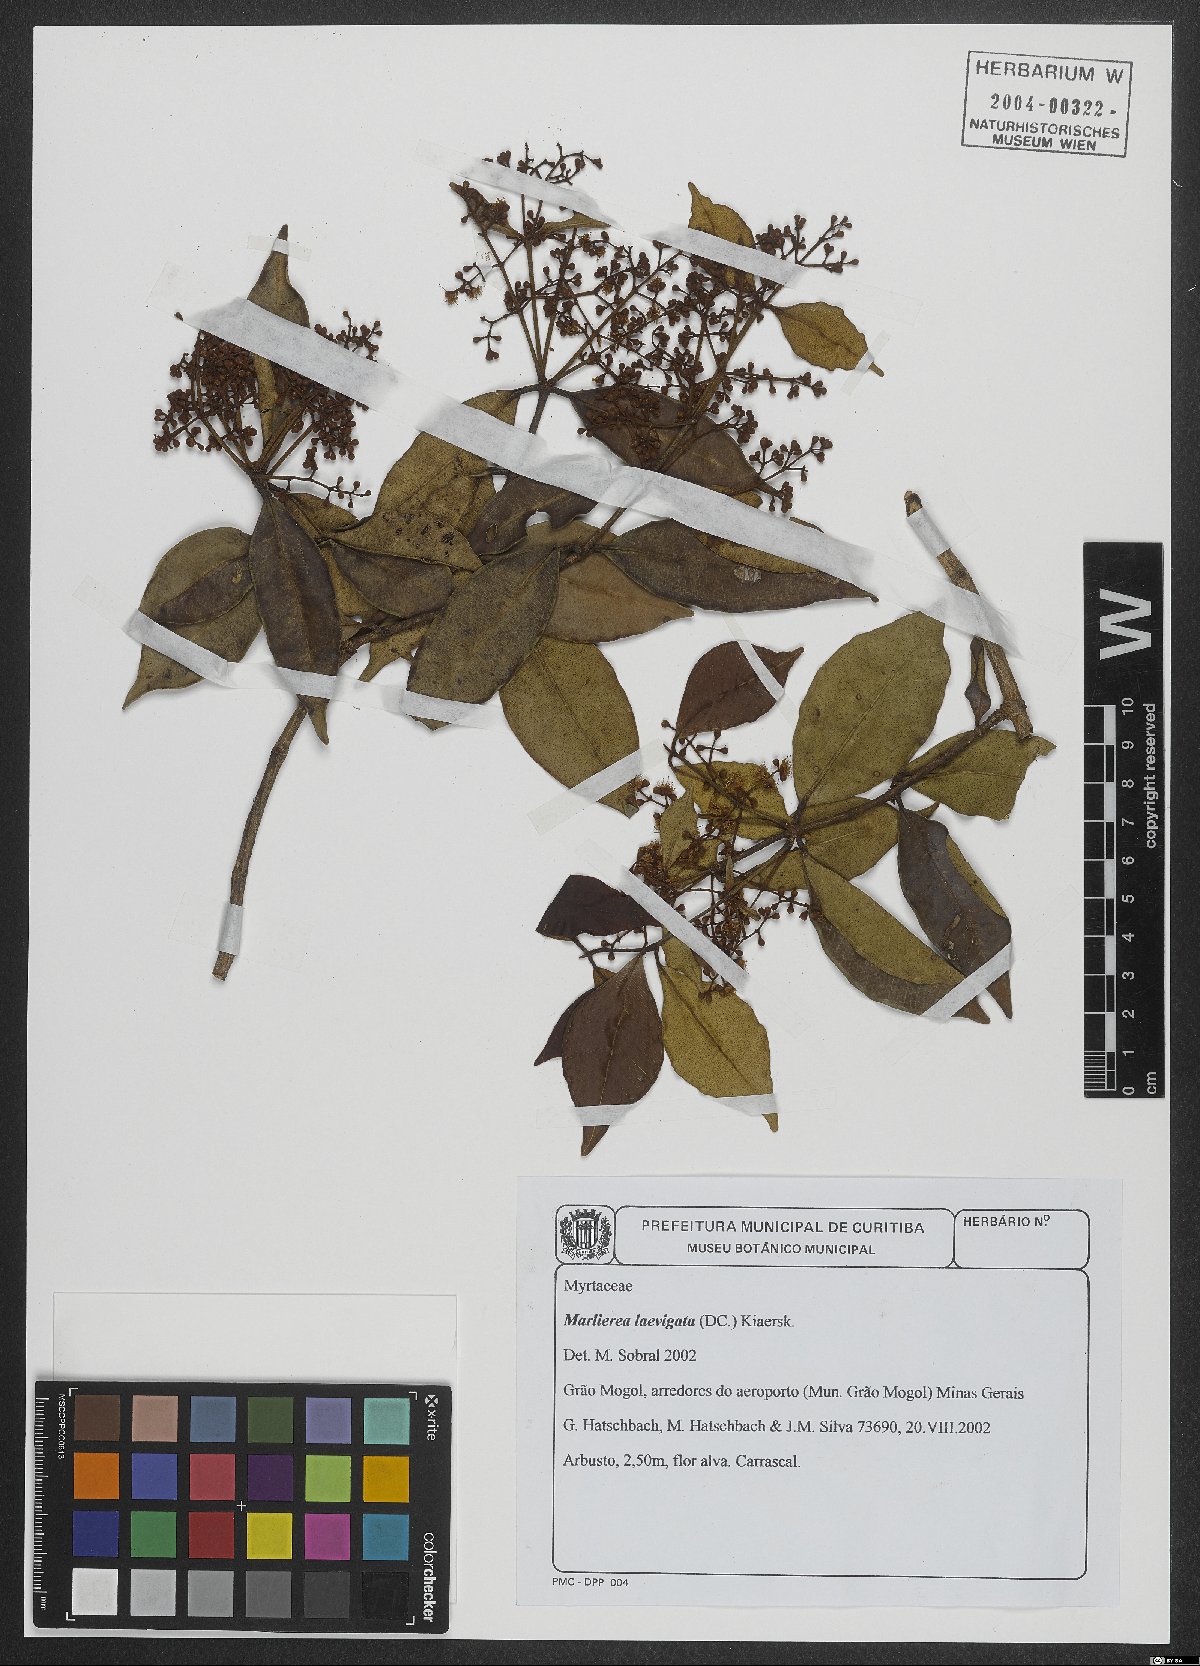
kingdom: Plantae
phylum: Tracheophyta
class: Magnoliopsida
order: Myrtales
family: Myrtaceae
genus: Myrcia
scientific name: Myrcia multipunctata
